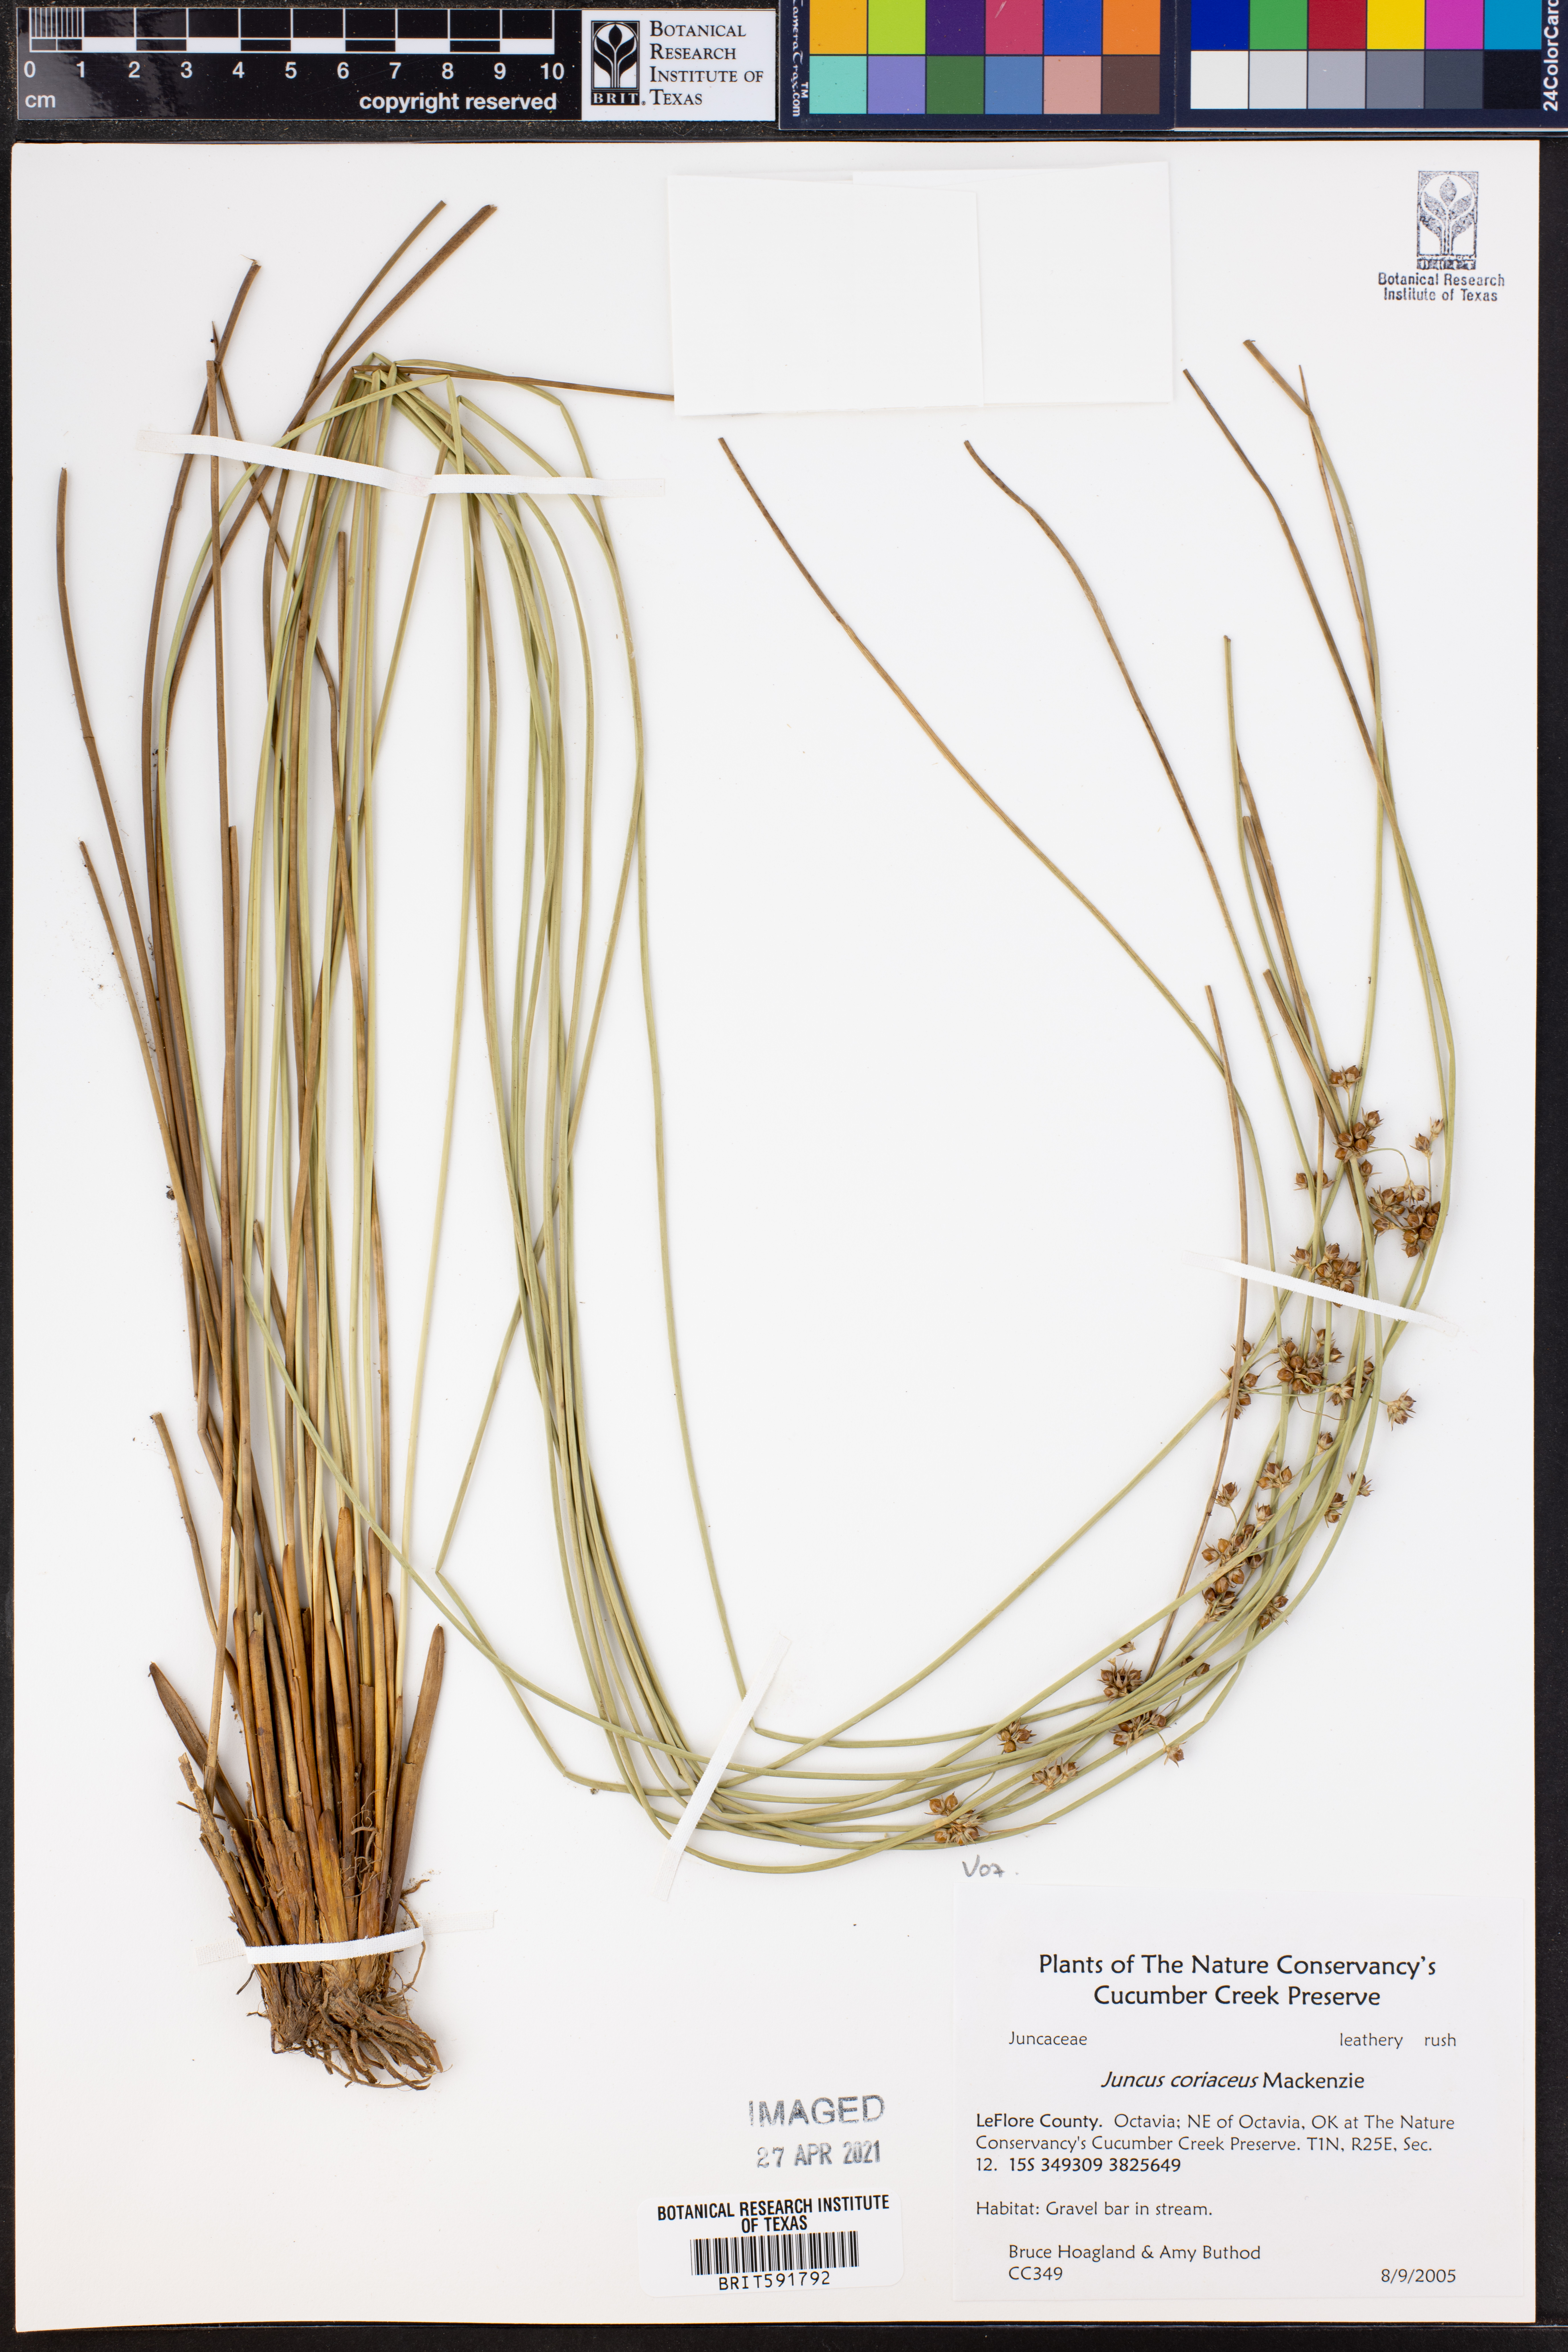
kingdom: Plantae
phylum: Tracheophyta
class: Liliopsida
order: Poales
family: Juncaceae
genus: Juncus
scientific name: Juncus coriaceus
